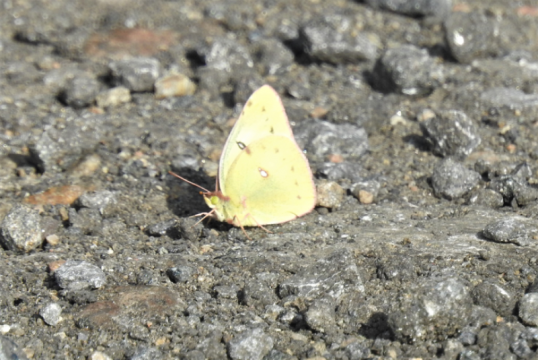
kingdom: Animalia
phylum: Arthropoda
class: Insecta
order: Lepidoptera
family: Pieridae
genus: Colias
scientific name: Colias philodice
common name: Clouded Sulphur
